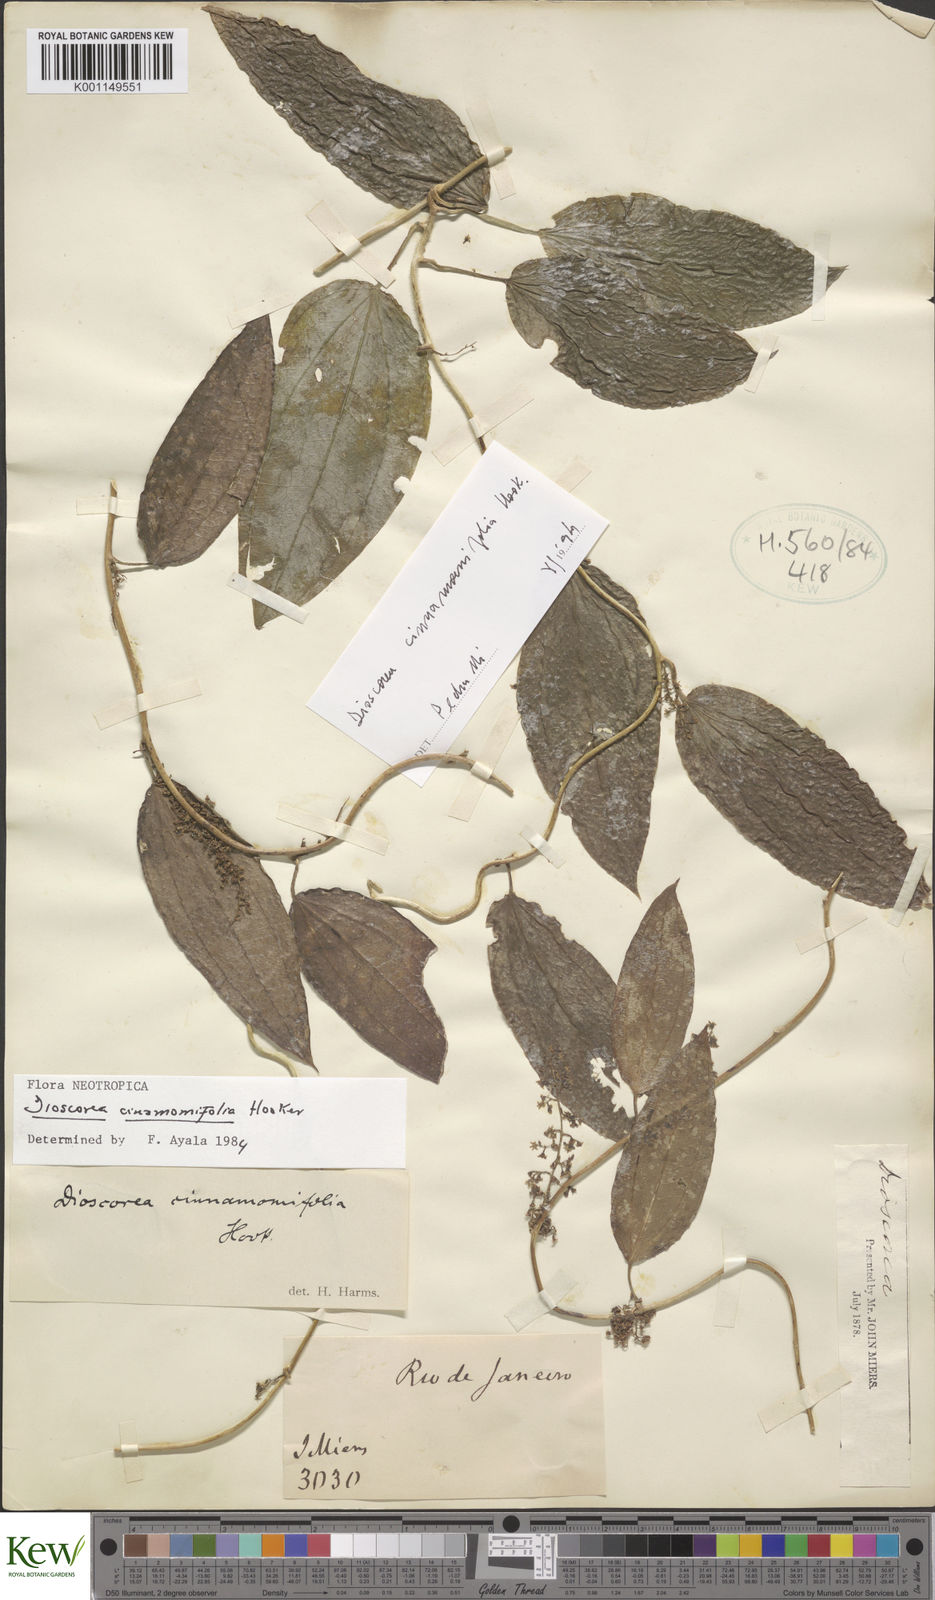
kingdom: Plantae
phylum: Tracheophyta
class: Liliopsida
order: Dioscoreales
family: Dioscoreaceae
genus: Dioscorea
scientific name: Dioscorea cinnamomifolia
